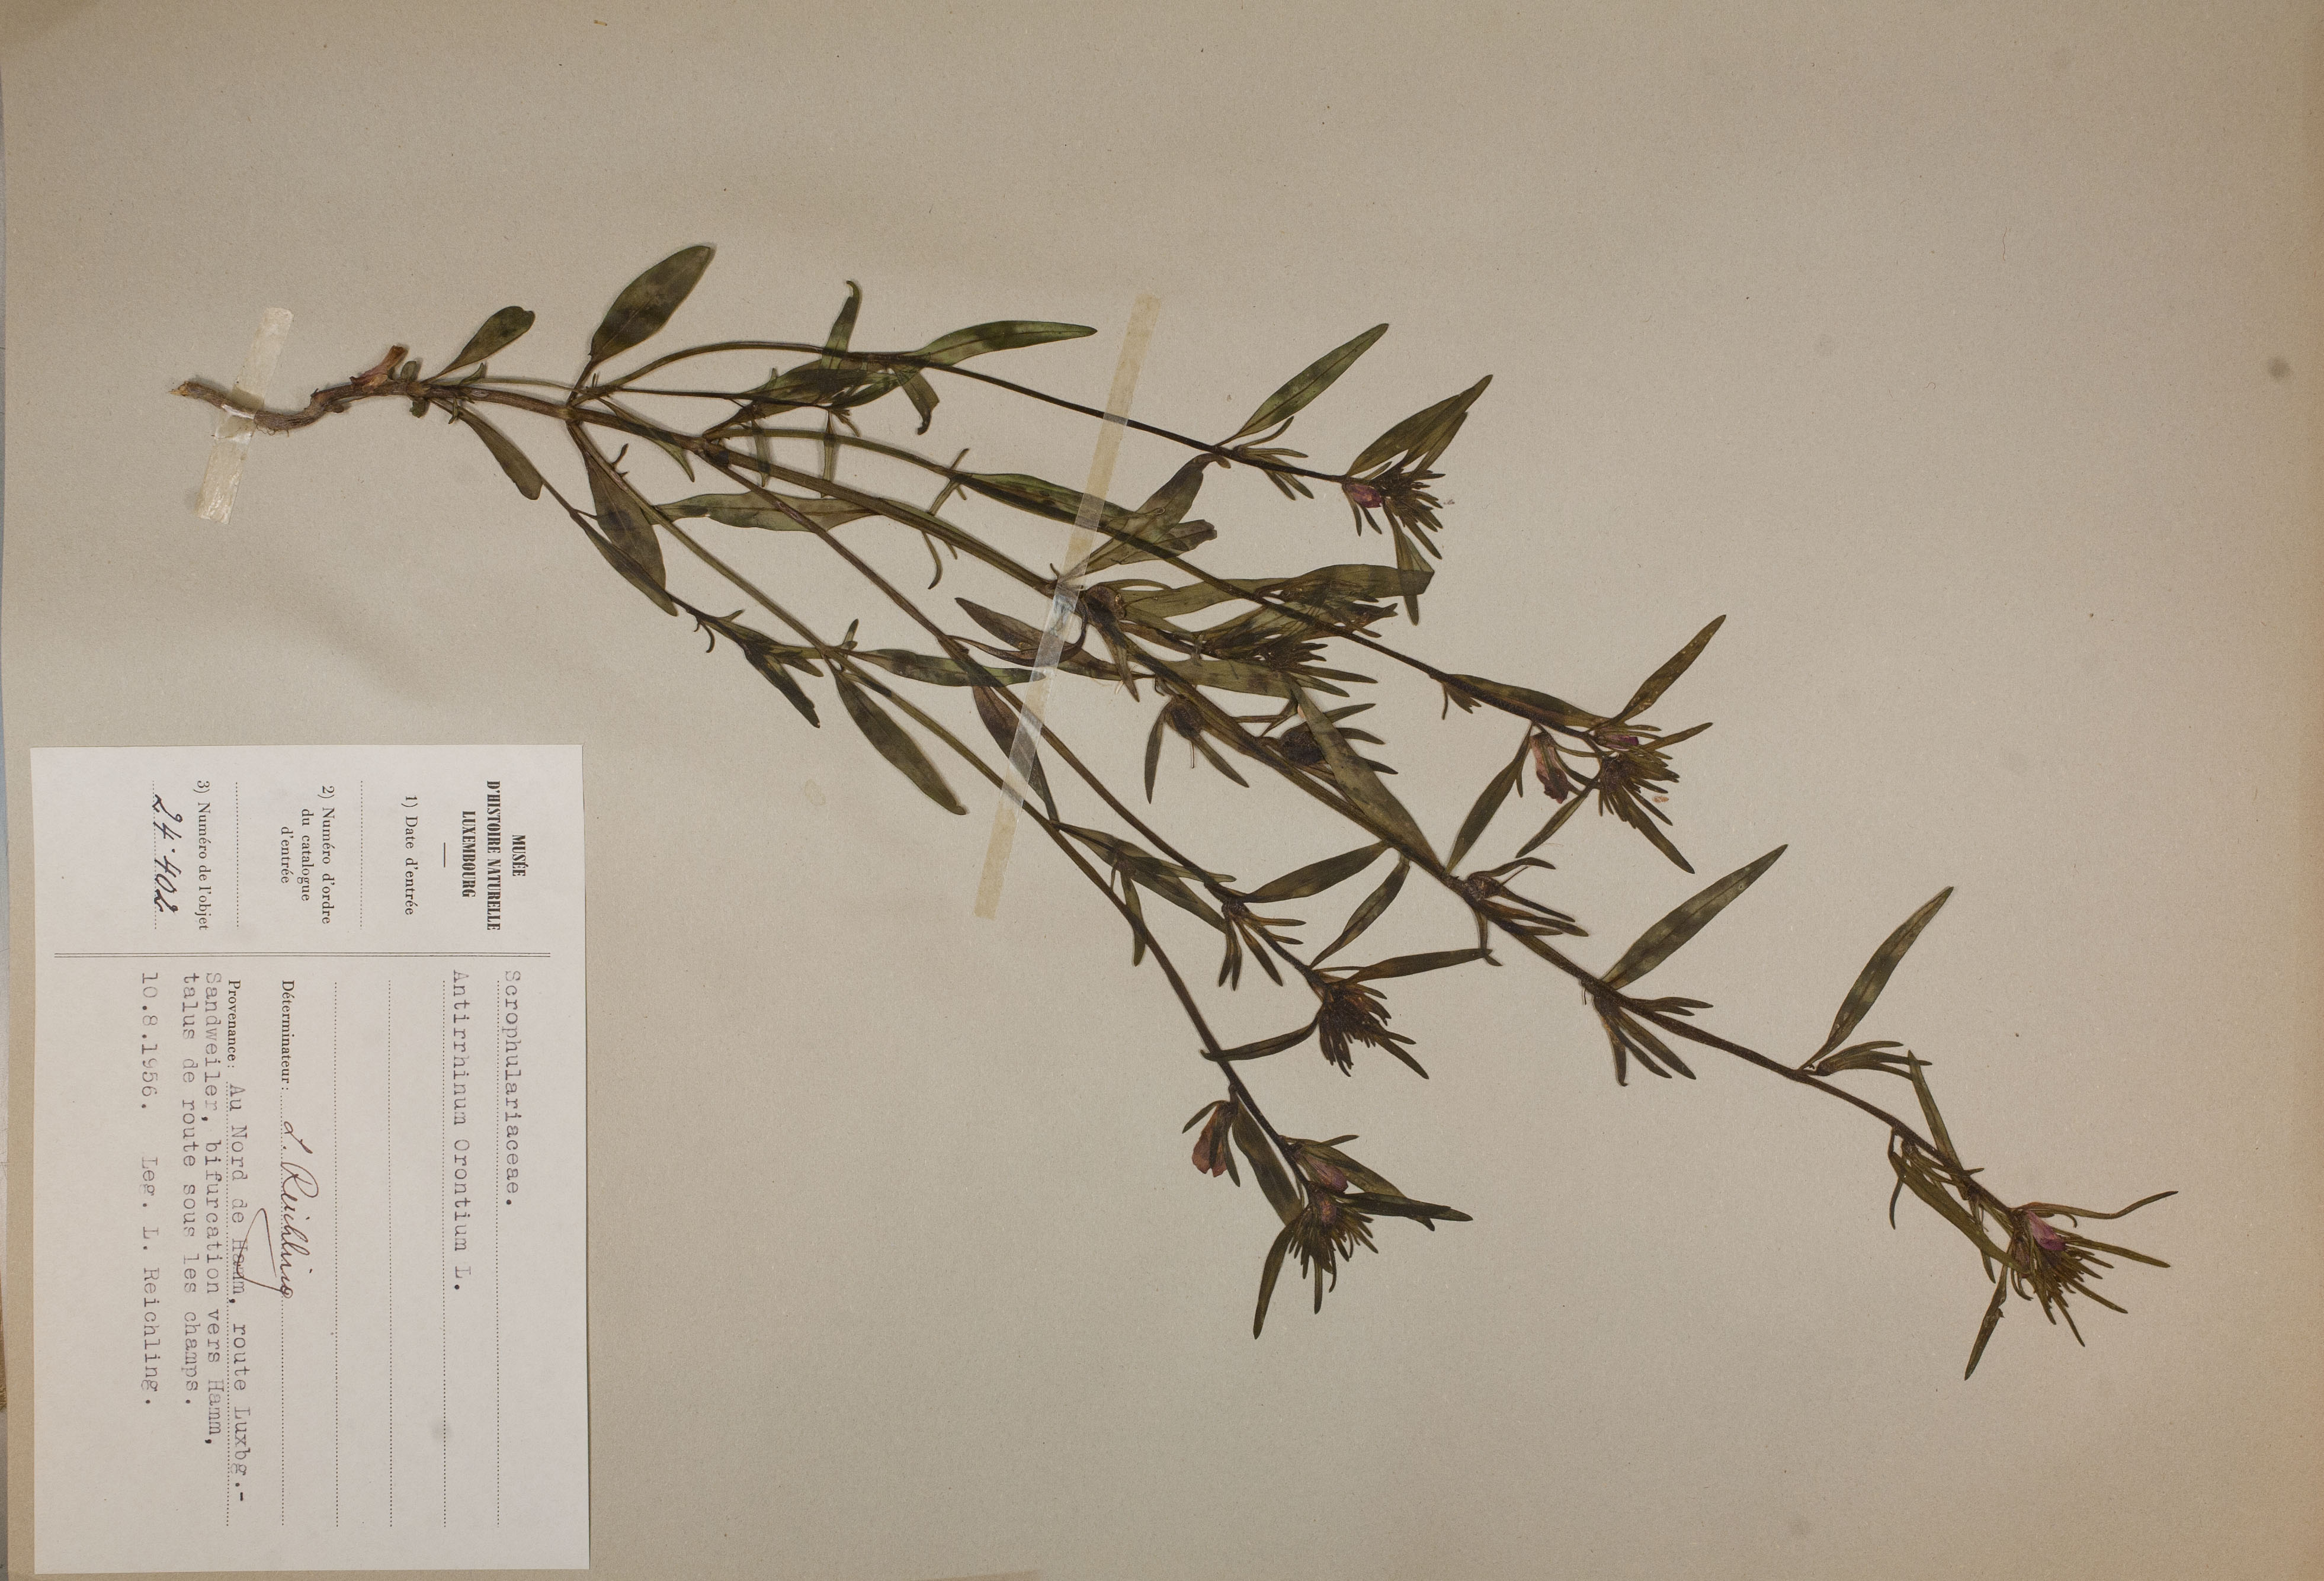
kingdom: Plantae
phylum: Tracheophyta
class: Magnoliopsida
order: Lamiales
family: Plantaginaceae
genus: Misopates
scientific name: Misopates orontium
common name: Weasel's-snout
